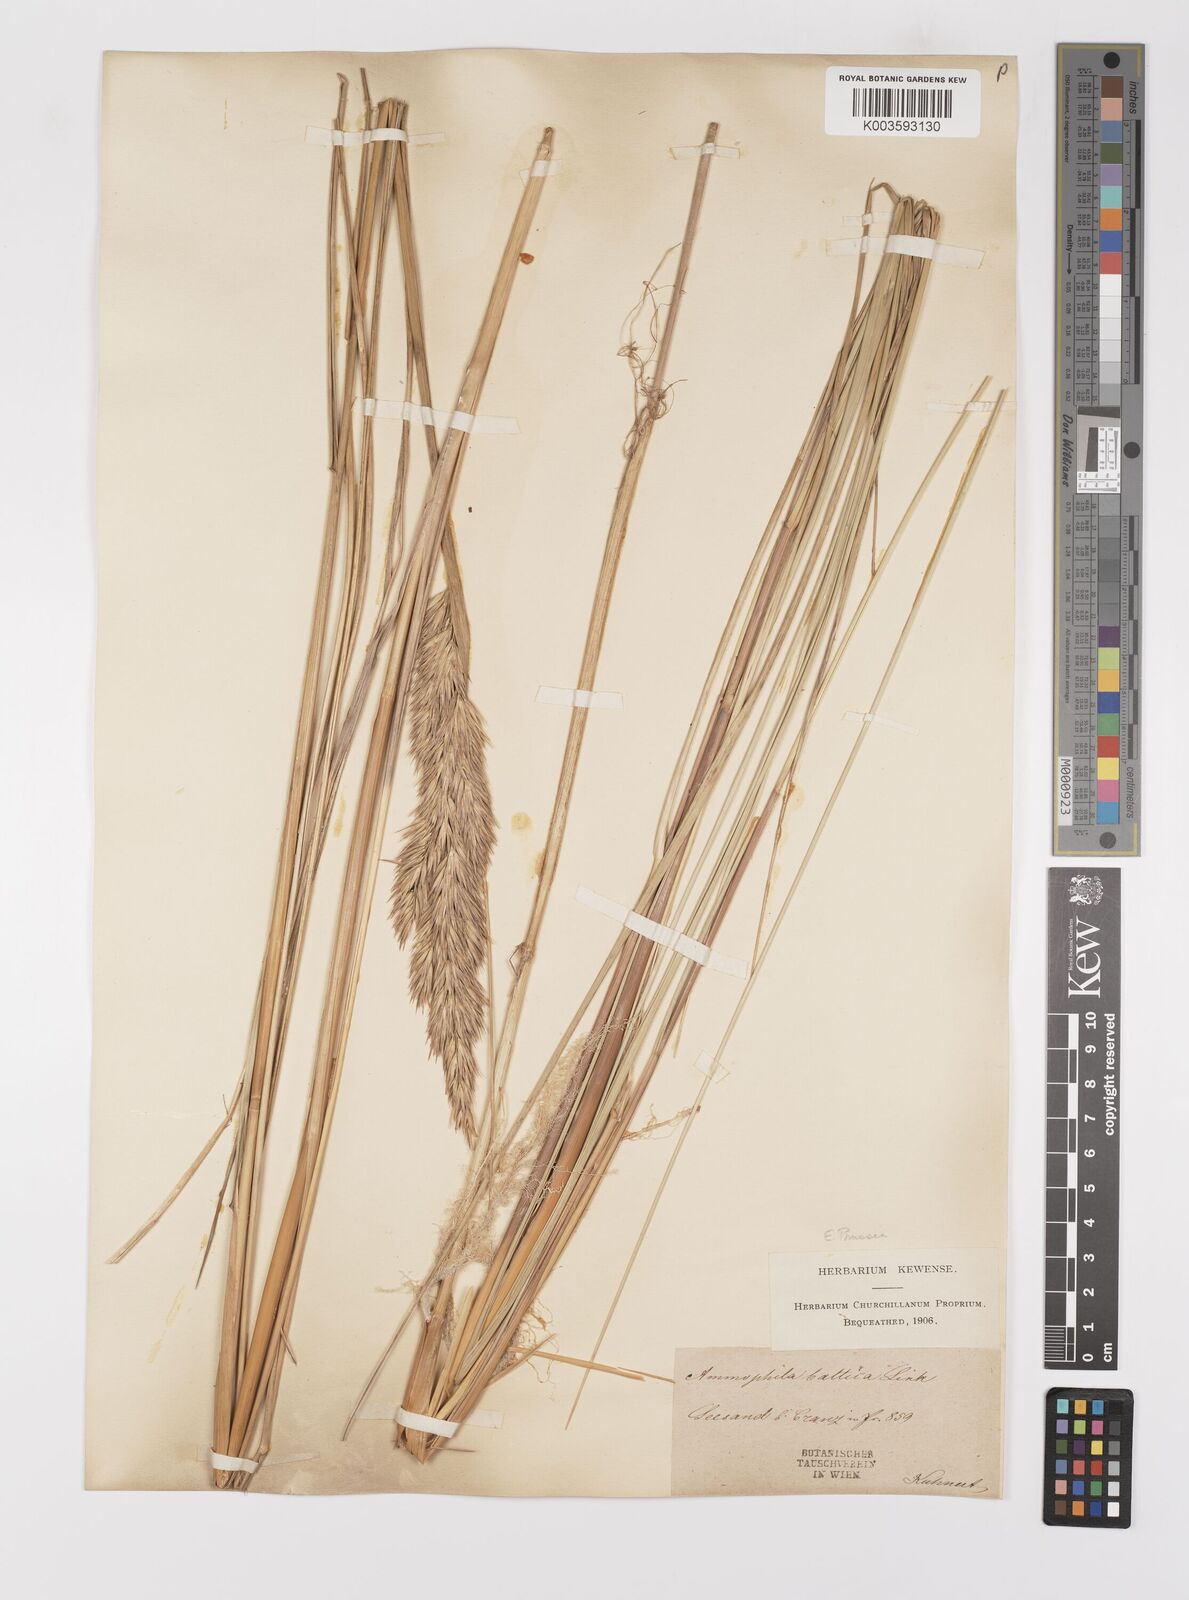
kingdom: Plantae
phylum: Tracheophyta
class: Liliopsida
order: Poales
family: Poaceae
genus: Calamagrostis
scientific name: Calamagrostis baltica
